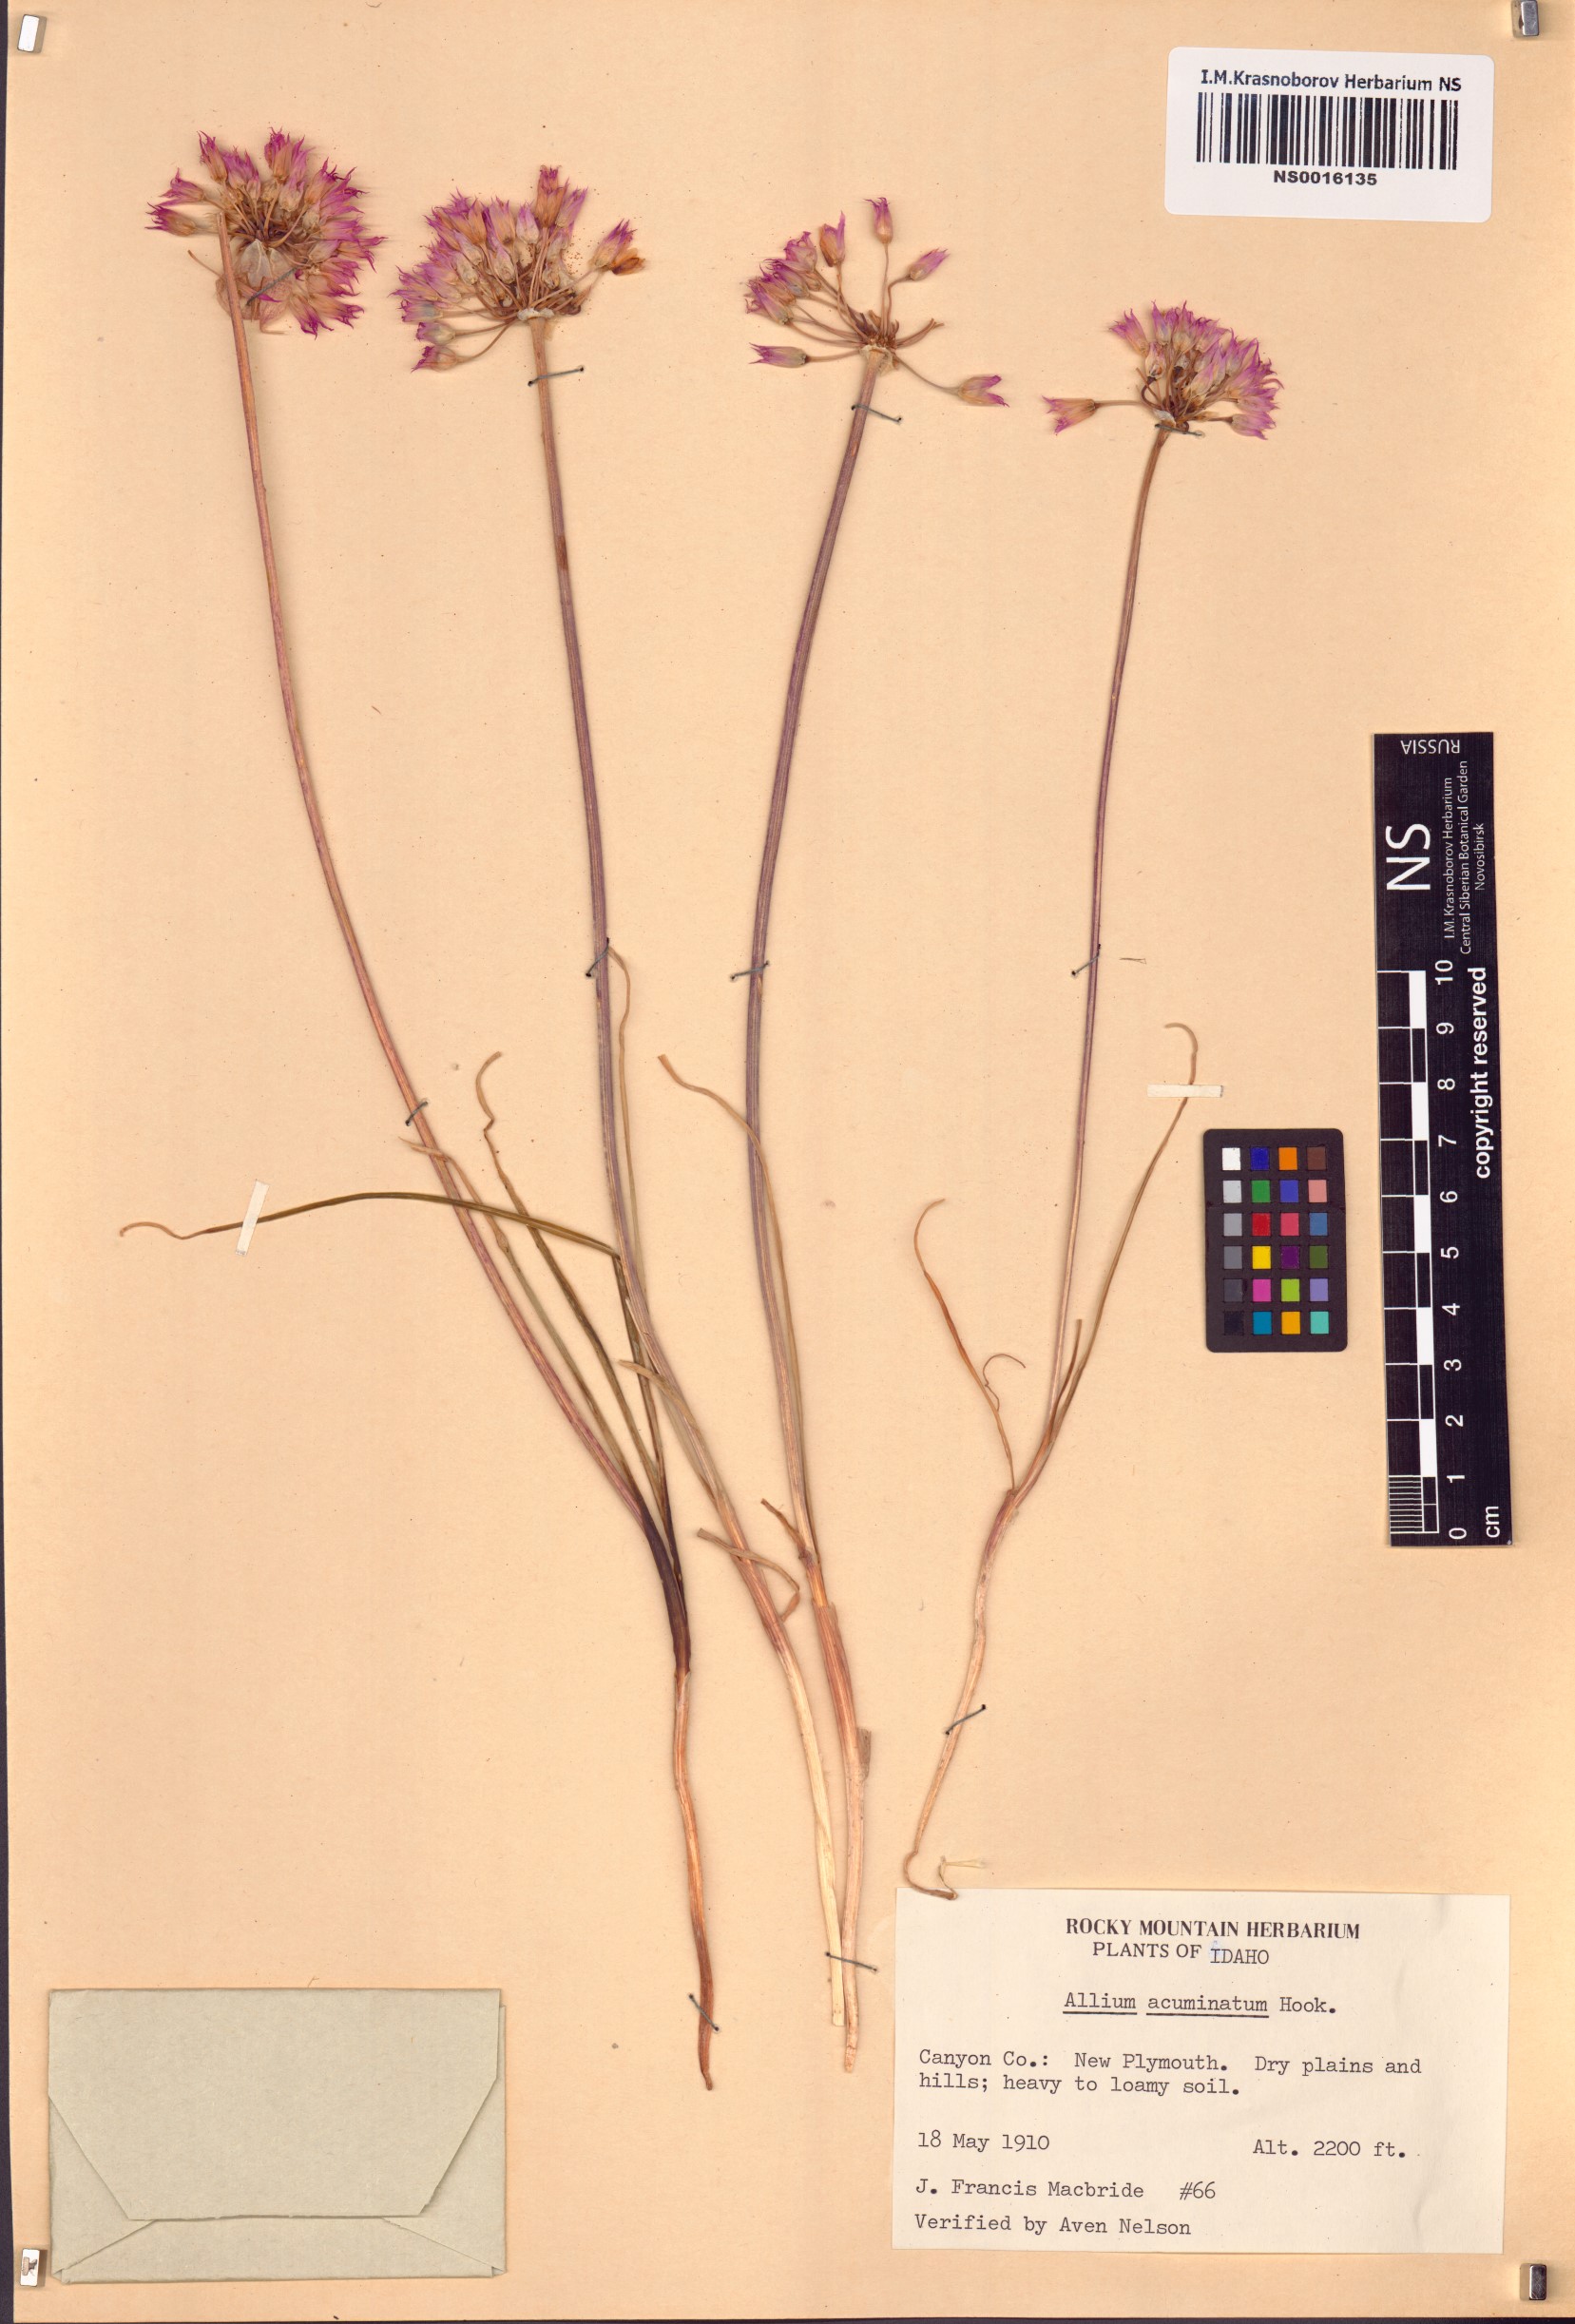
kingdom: Plantae
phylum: Tracheophyta
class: Liliopsida
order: Asparagales
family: Amaryllidaceae
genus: Allium
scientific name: Allium acuminatum
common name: Hooker's onion
